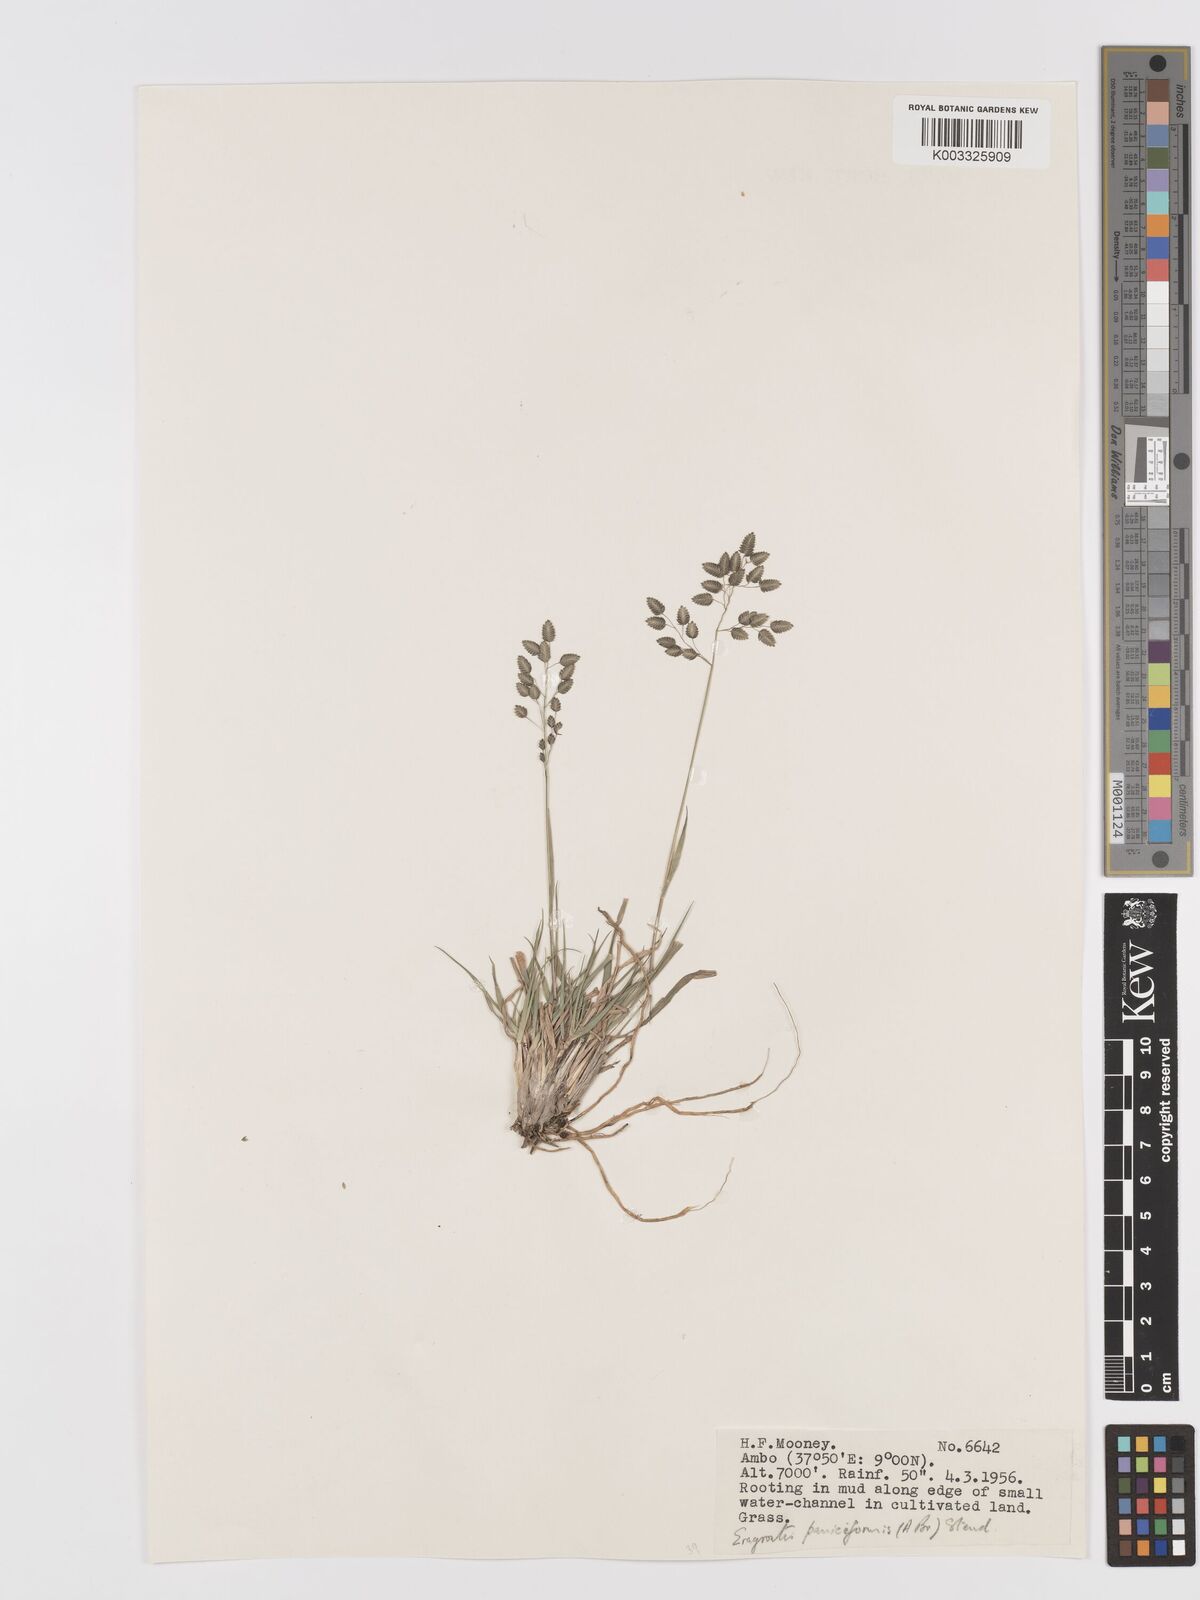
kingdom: Plantae
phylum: Tracheophyta
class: Liliopsida
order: Poales
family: Poaceae
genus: Eragrostis
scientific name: Eragrostis paniciformis
